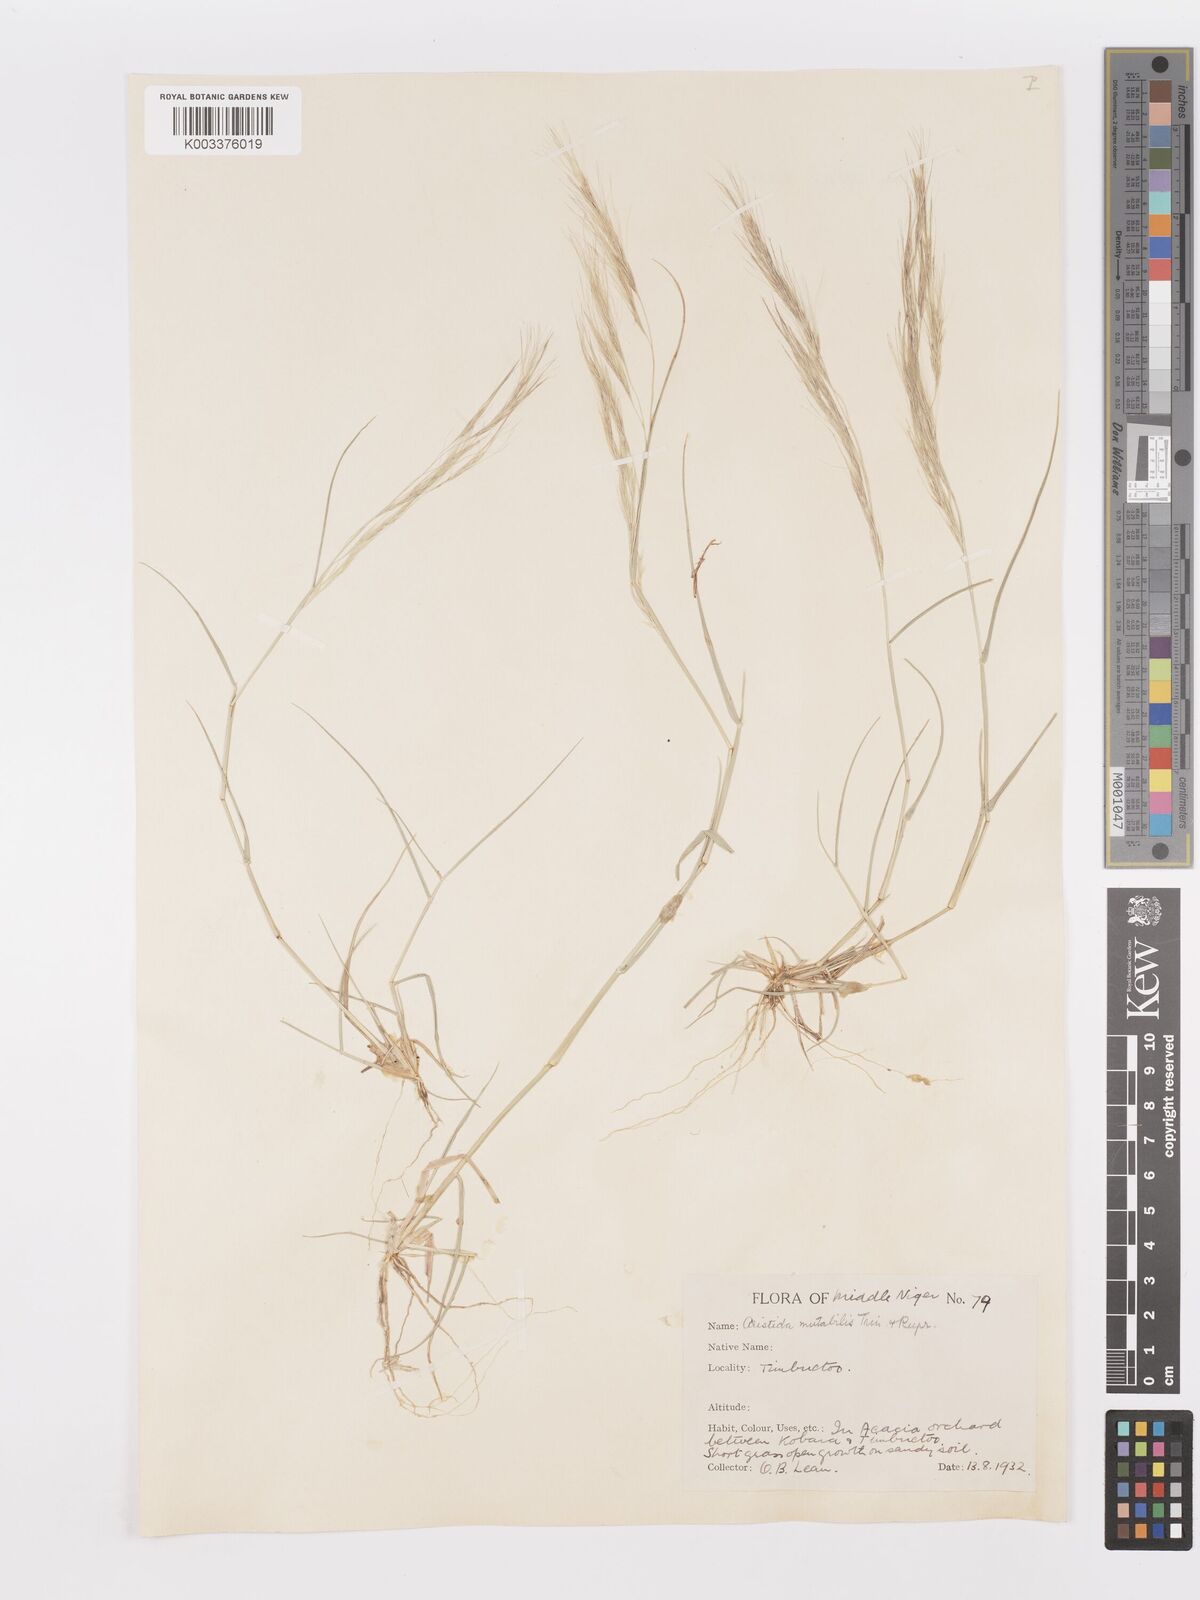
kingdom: Plantae
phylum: Tracheophyta
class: Liliopsida
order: Poales
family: Poaceae
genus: Aristida
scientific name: Aristida mutabilis
